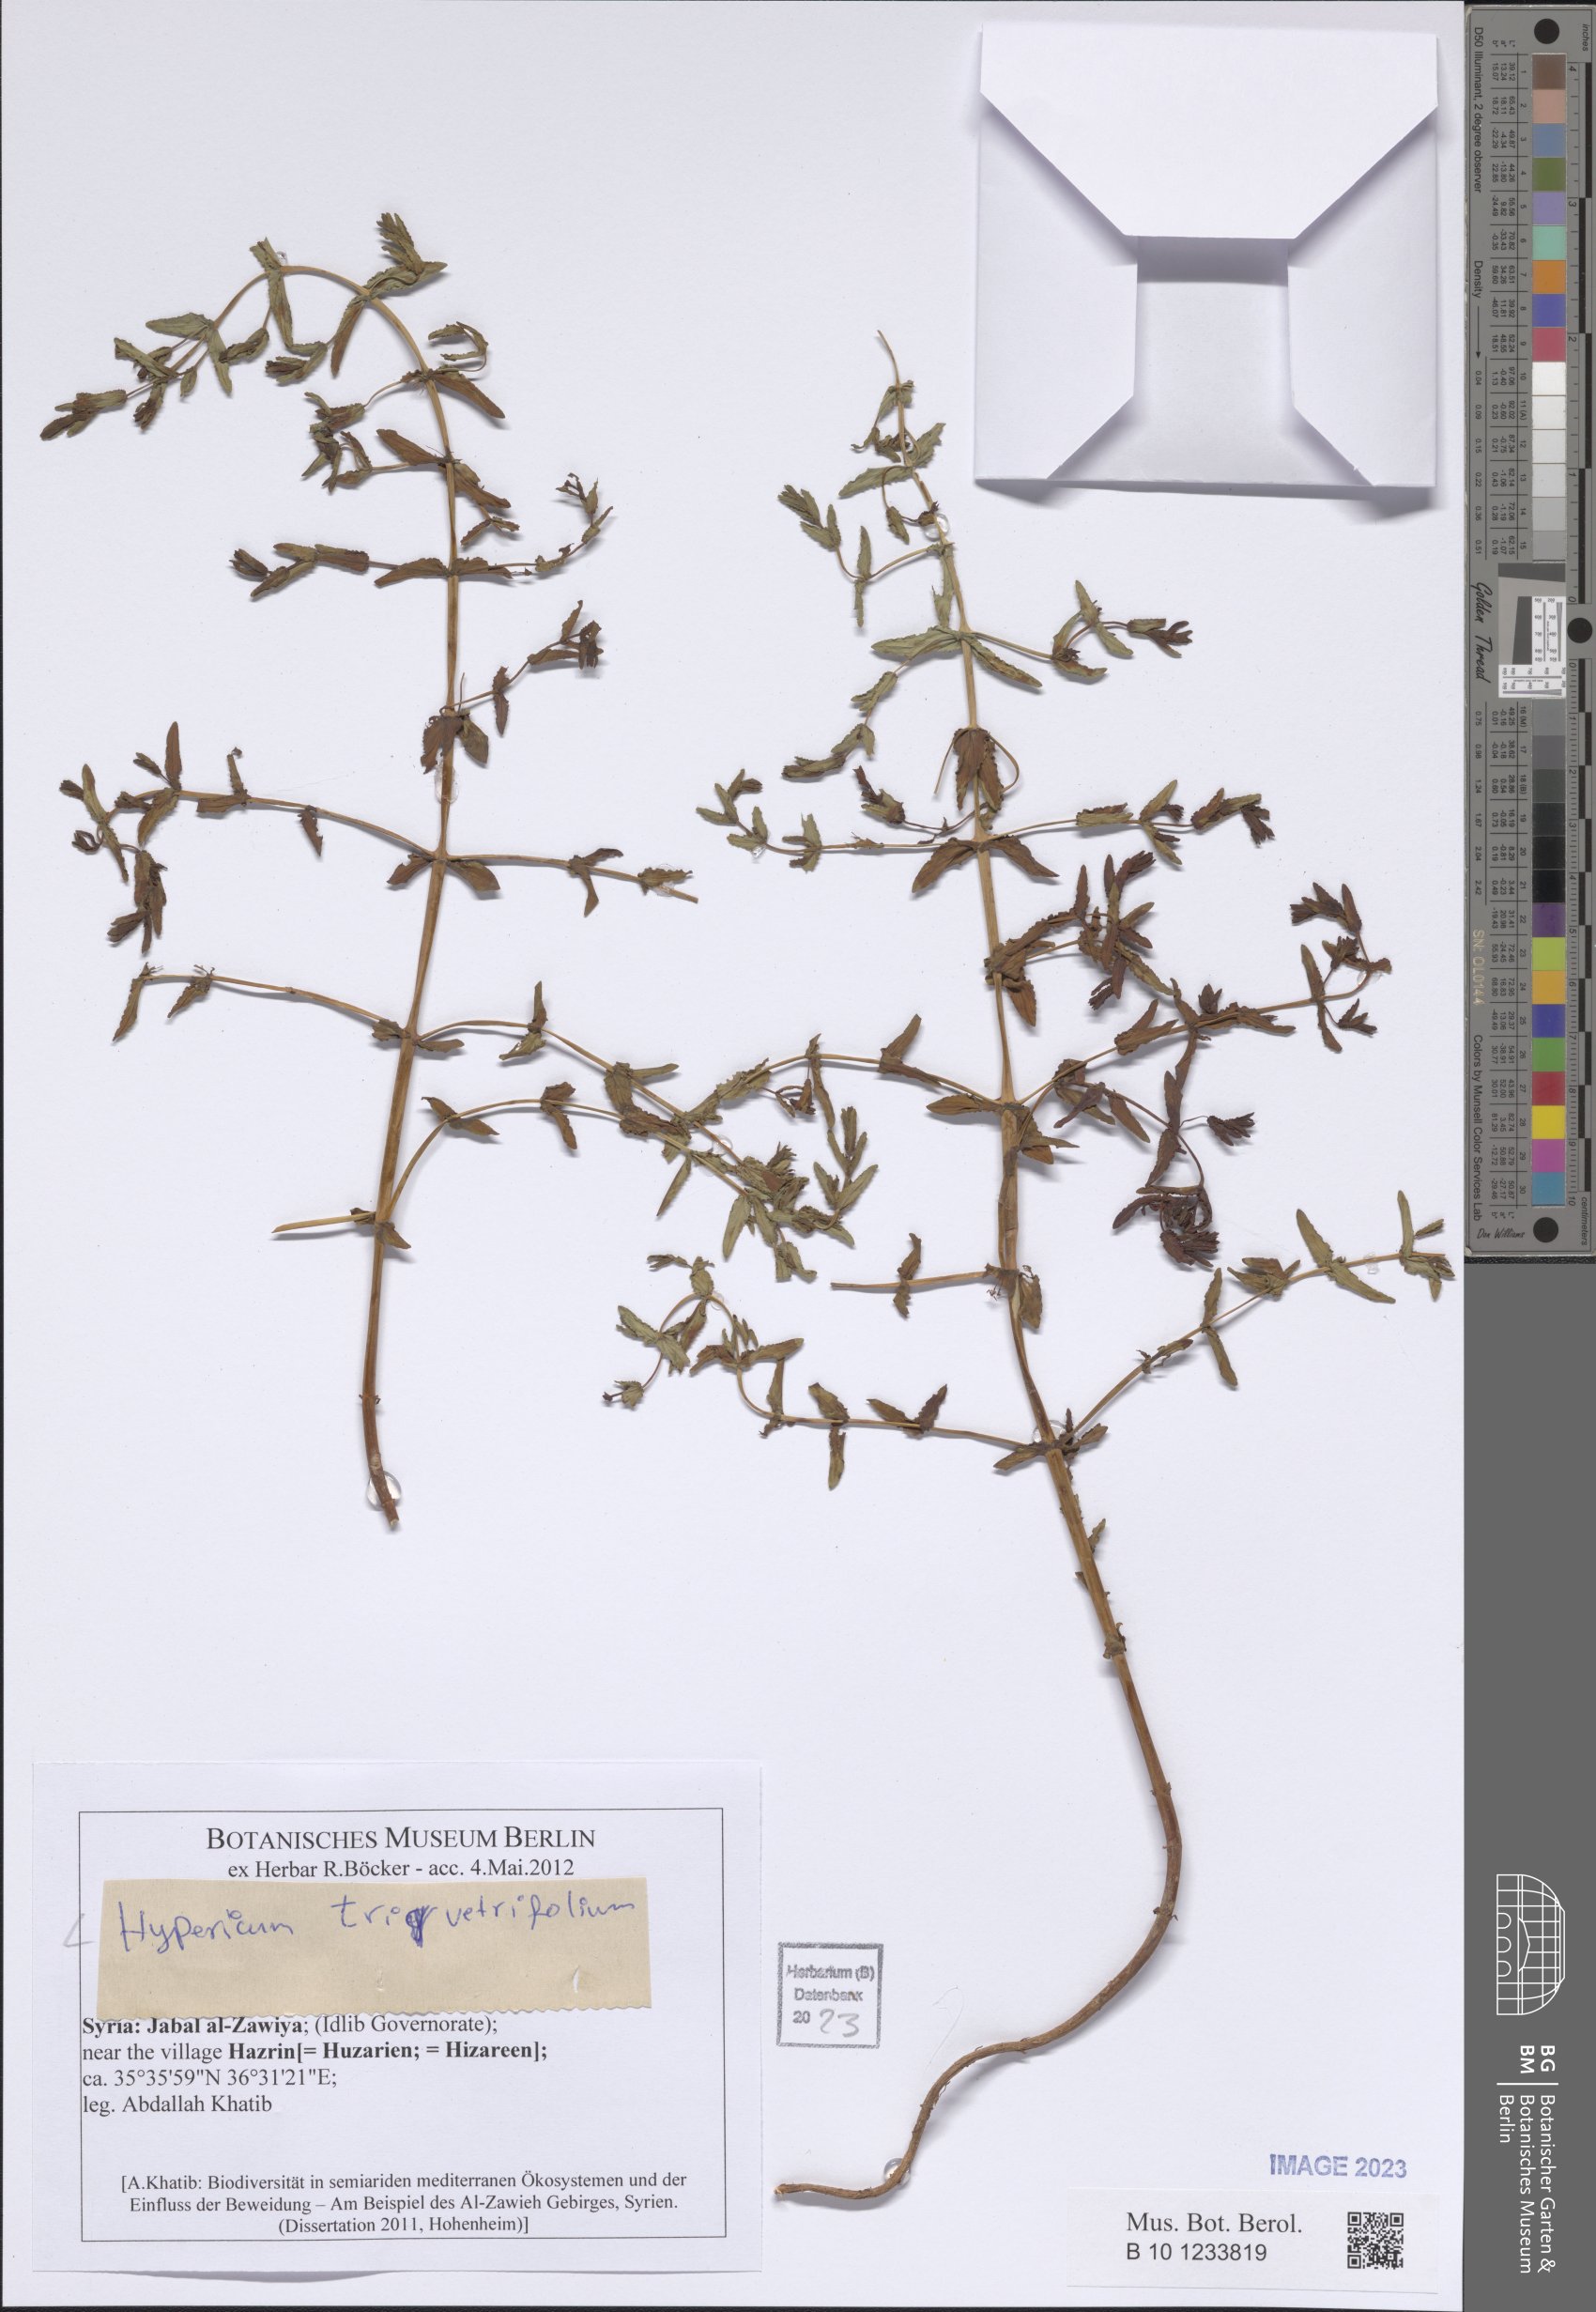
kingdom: Plantae
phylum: Tracheophyta
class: Magnoliopsida
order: Malpighiales
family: Hypericaceae
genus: Hypericum
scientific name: Hypericum triquetrifolium
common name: Tangled hypericum
